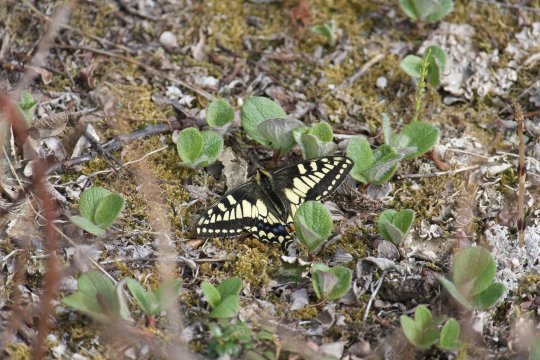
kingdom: Animalia
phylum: Arthropoda
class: Insecta
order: Lepidoptera
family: Papilionidae
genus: Papilio
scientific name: Papilio machaon
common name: Old World Swallowtail
